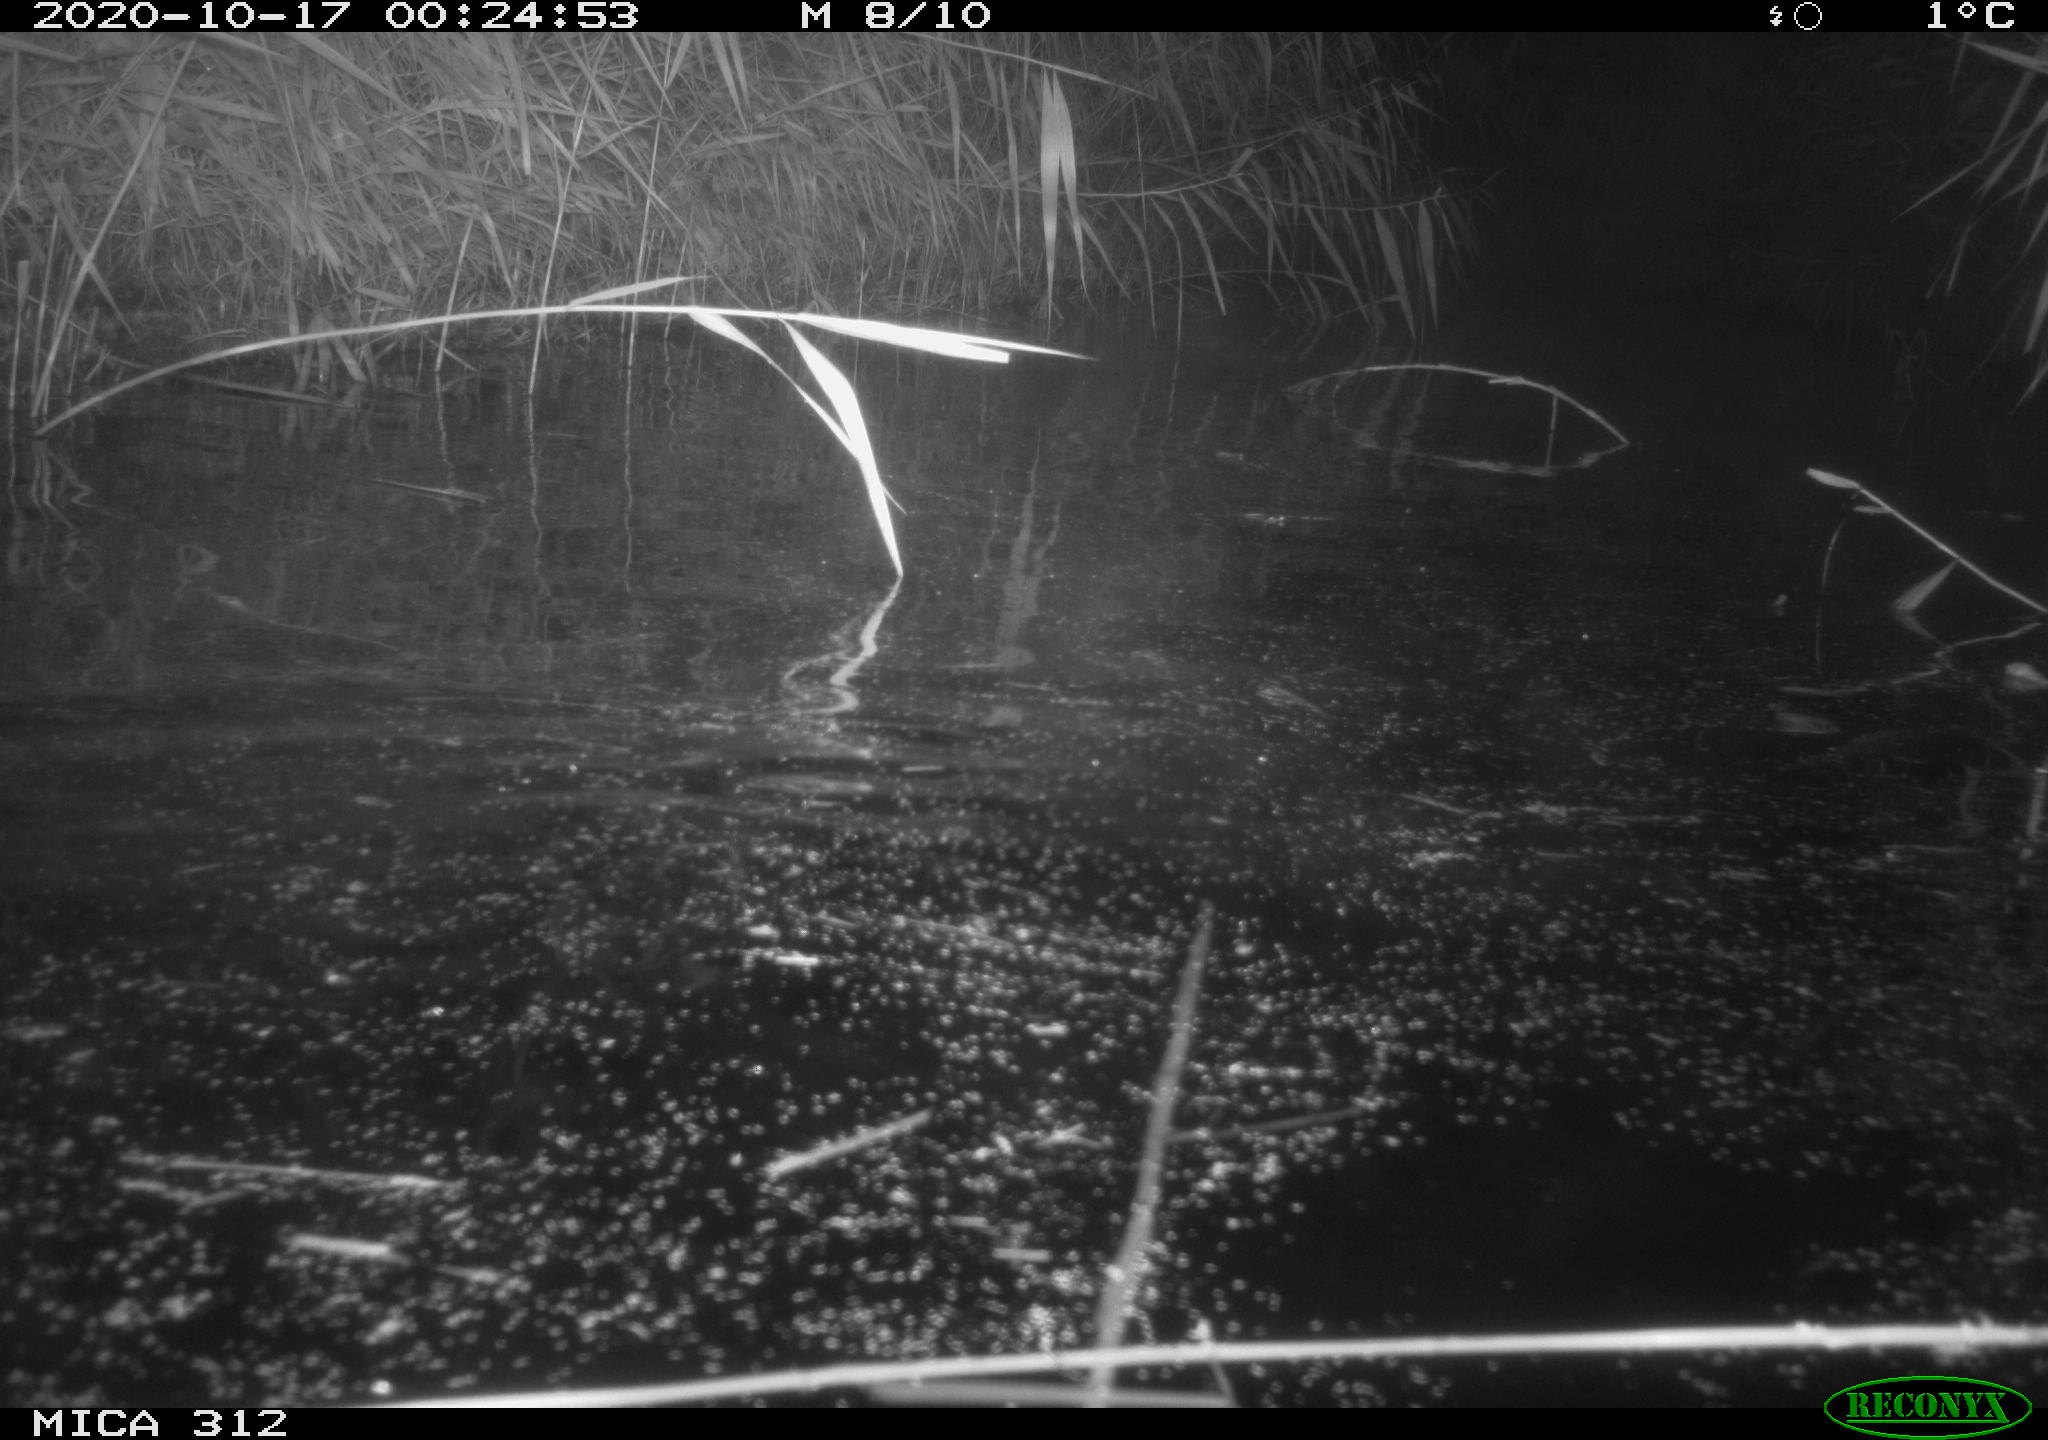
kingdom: Animalia
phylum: Chordata
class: Mammalia
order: Rodentia
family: Cricetidae
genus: Ondatra
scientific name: Ondatra zibethicus
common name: Muskrat
